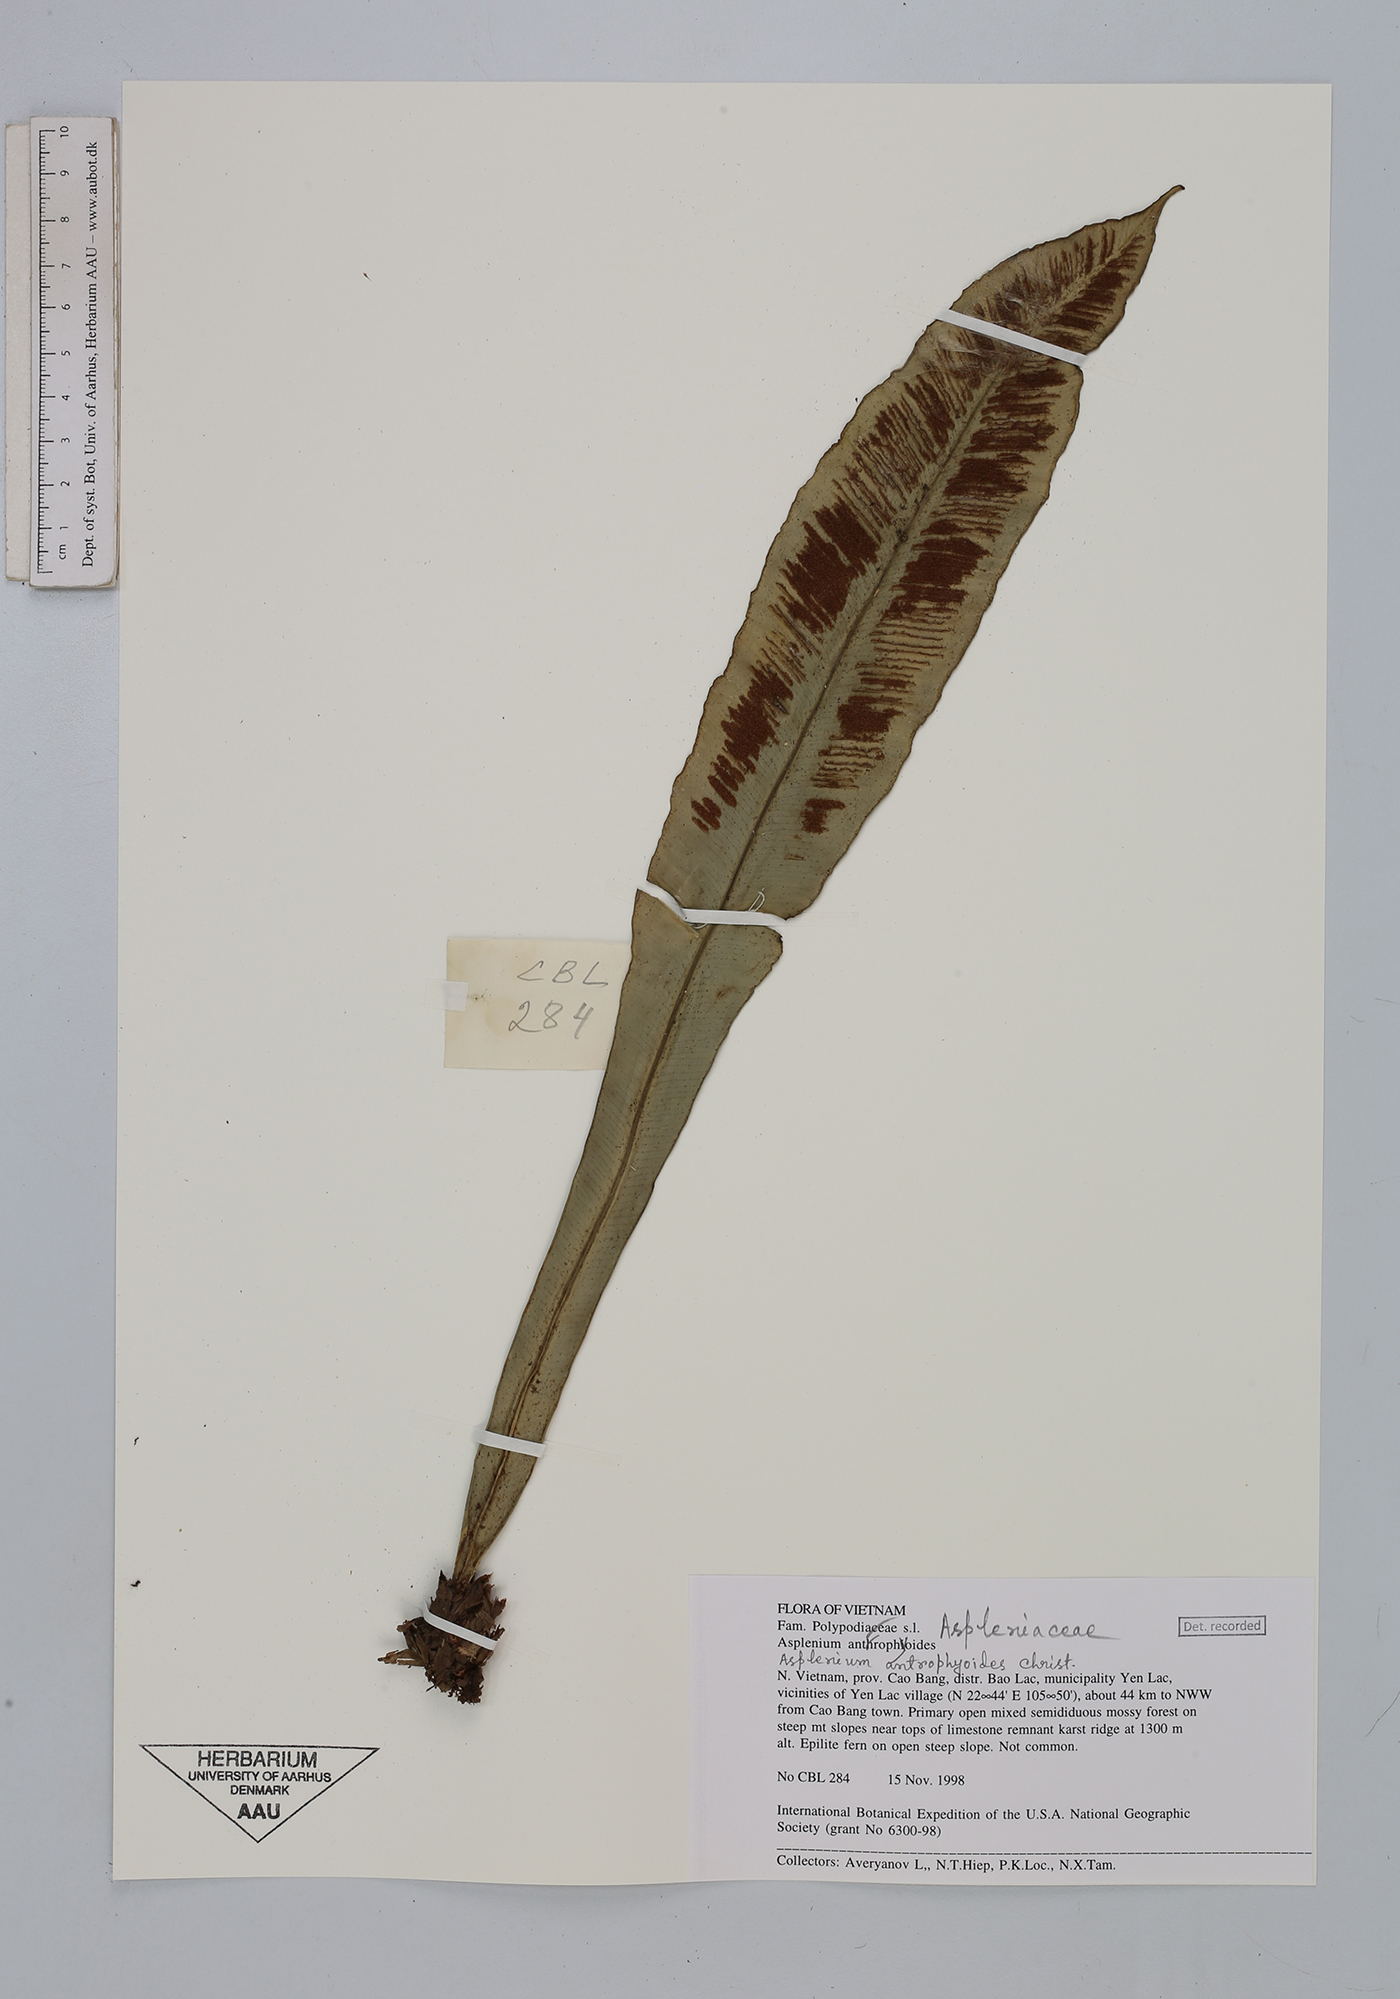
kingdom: Plantae
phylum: Tracheophyta
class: Polypodiopsida
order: Polypodiales
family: Aspleniaceae
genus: Asplenium
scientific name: Asplenium antrophyoides
